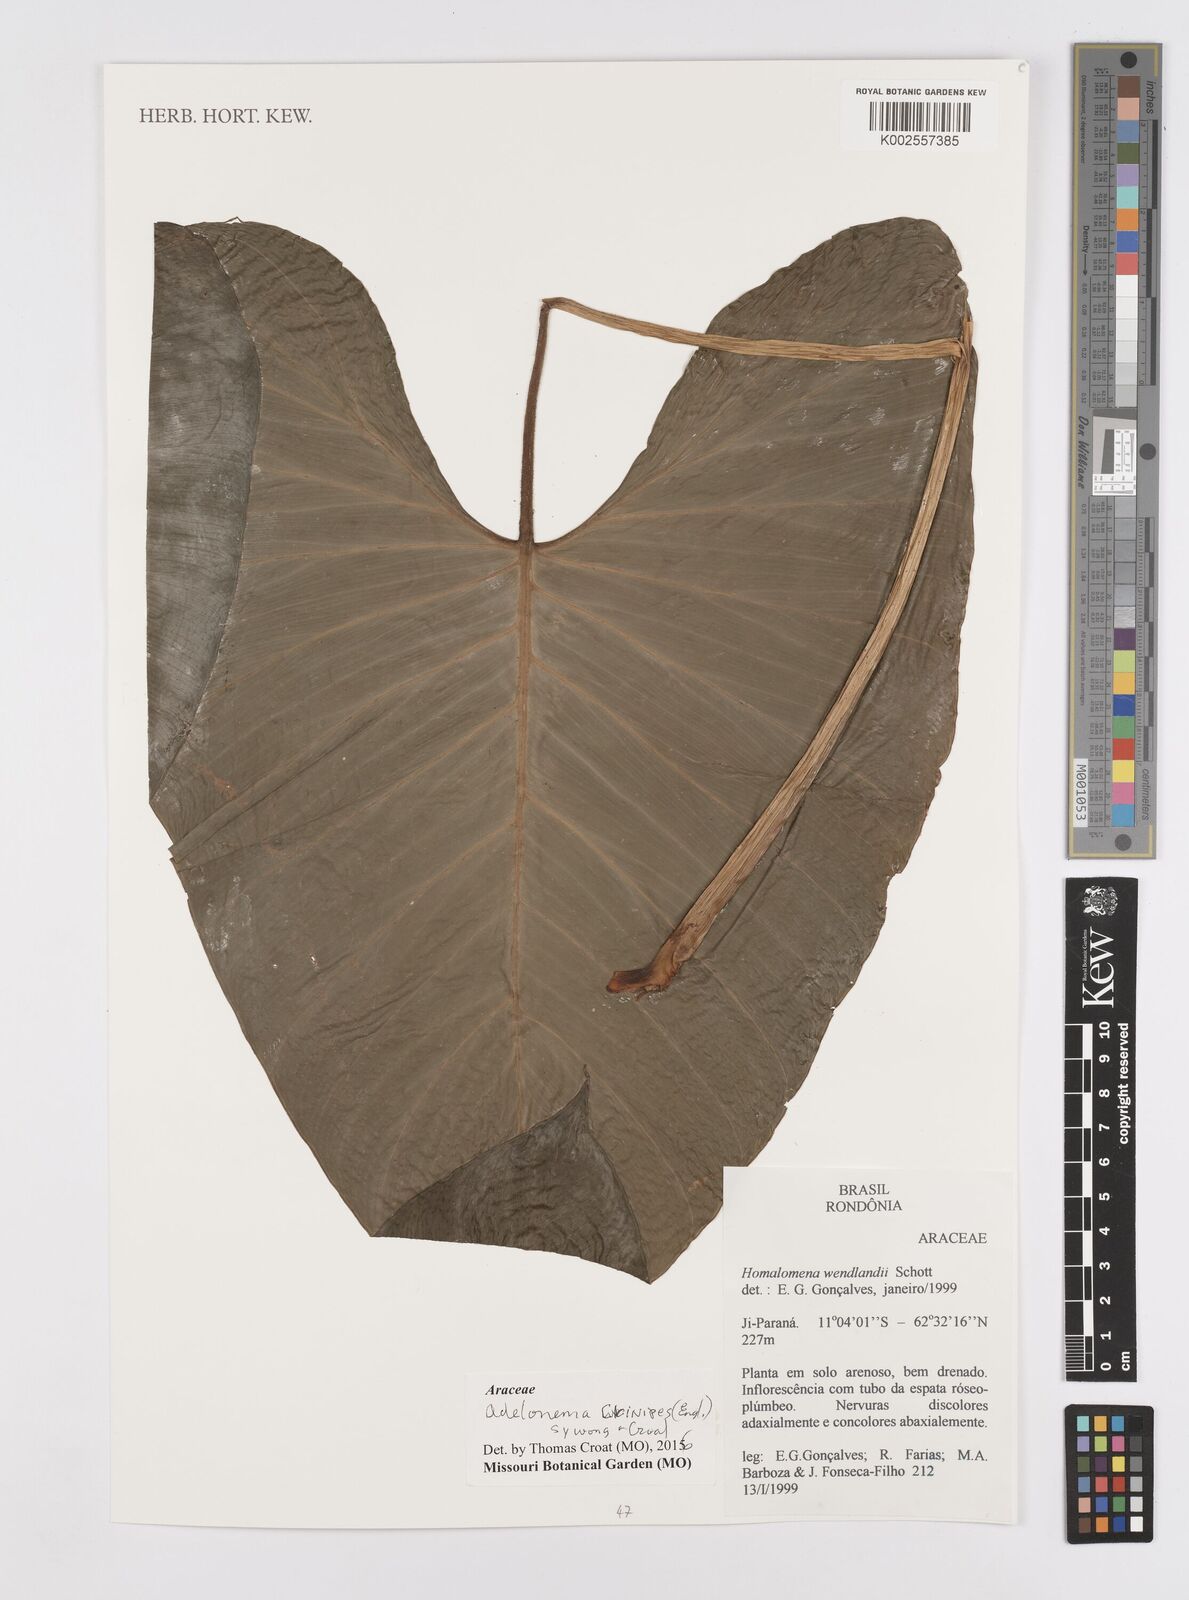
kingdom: Plantae
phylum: Tracheophyta
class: Liliopsida
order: Alismatales
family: Araceae
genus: Adelonema
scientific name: Adelonema crinipes
